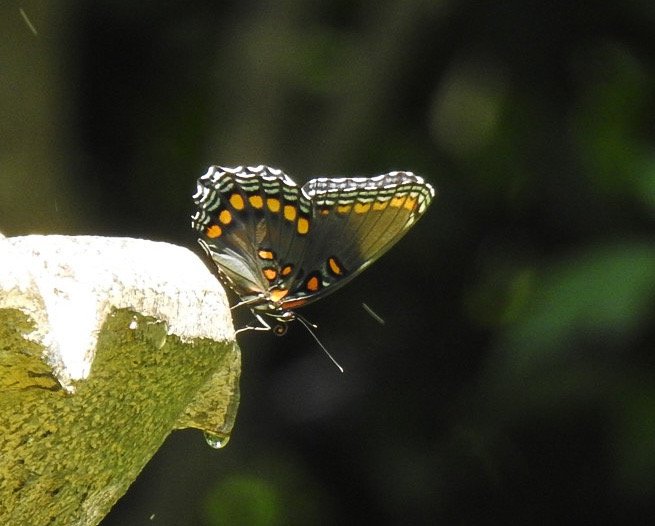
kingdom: Animalia
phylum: Arthropoda
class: Insecta
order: Lepidoptera
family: Nymphalidae
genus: Limenitis
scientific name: Limenitis arthemis
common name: Red-spotted Admiral
